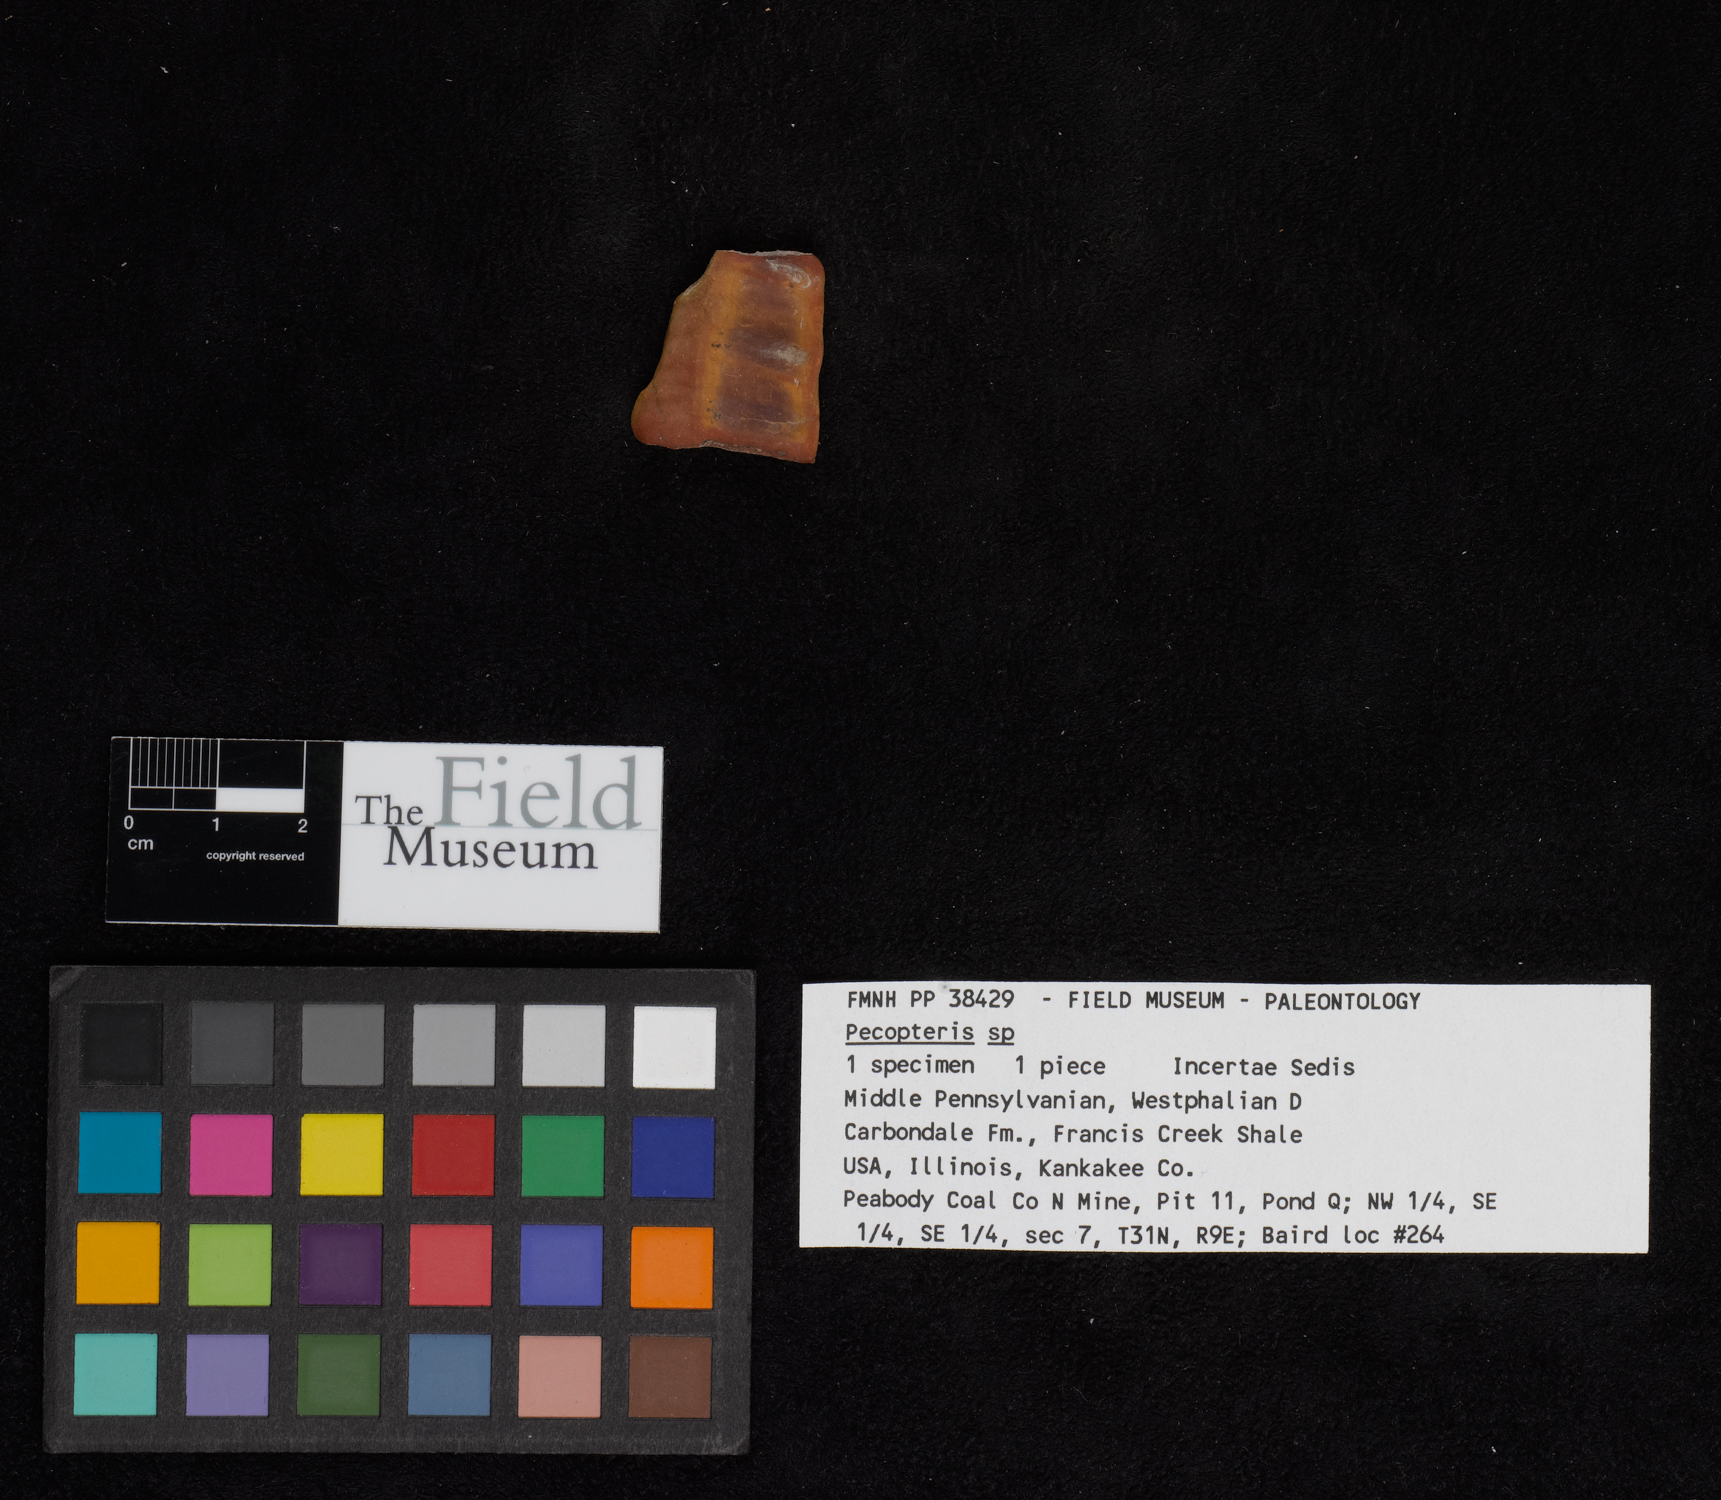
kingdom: Plantae
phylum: Tracheophyta
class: Polypodiopsida
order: Marattiales
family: Asterothecaceae
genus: Pecopteris
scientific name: Pecopteris
